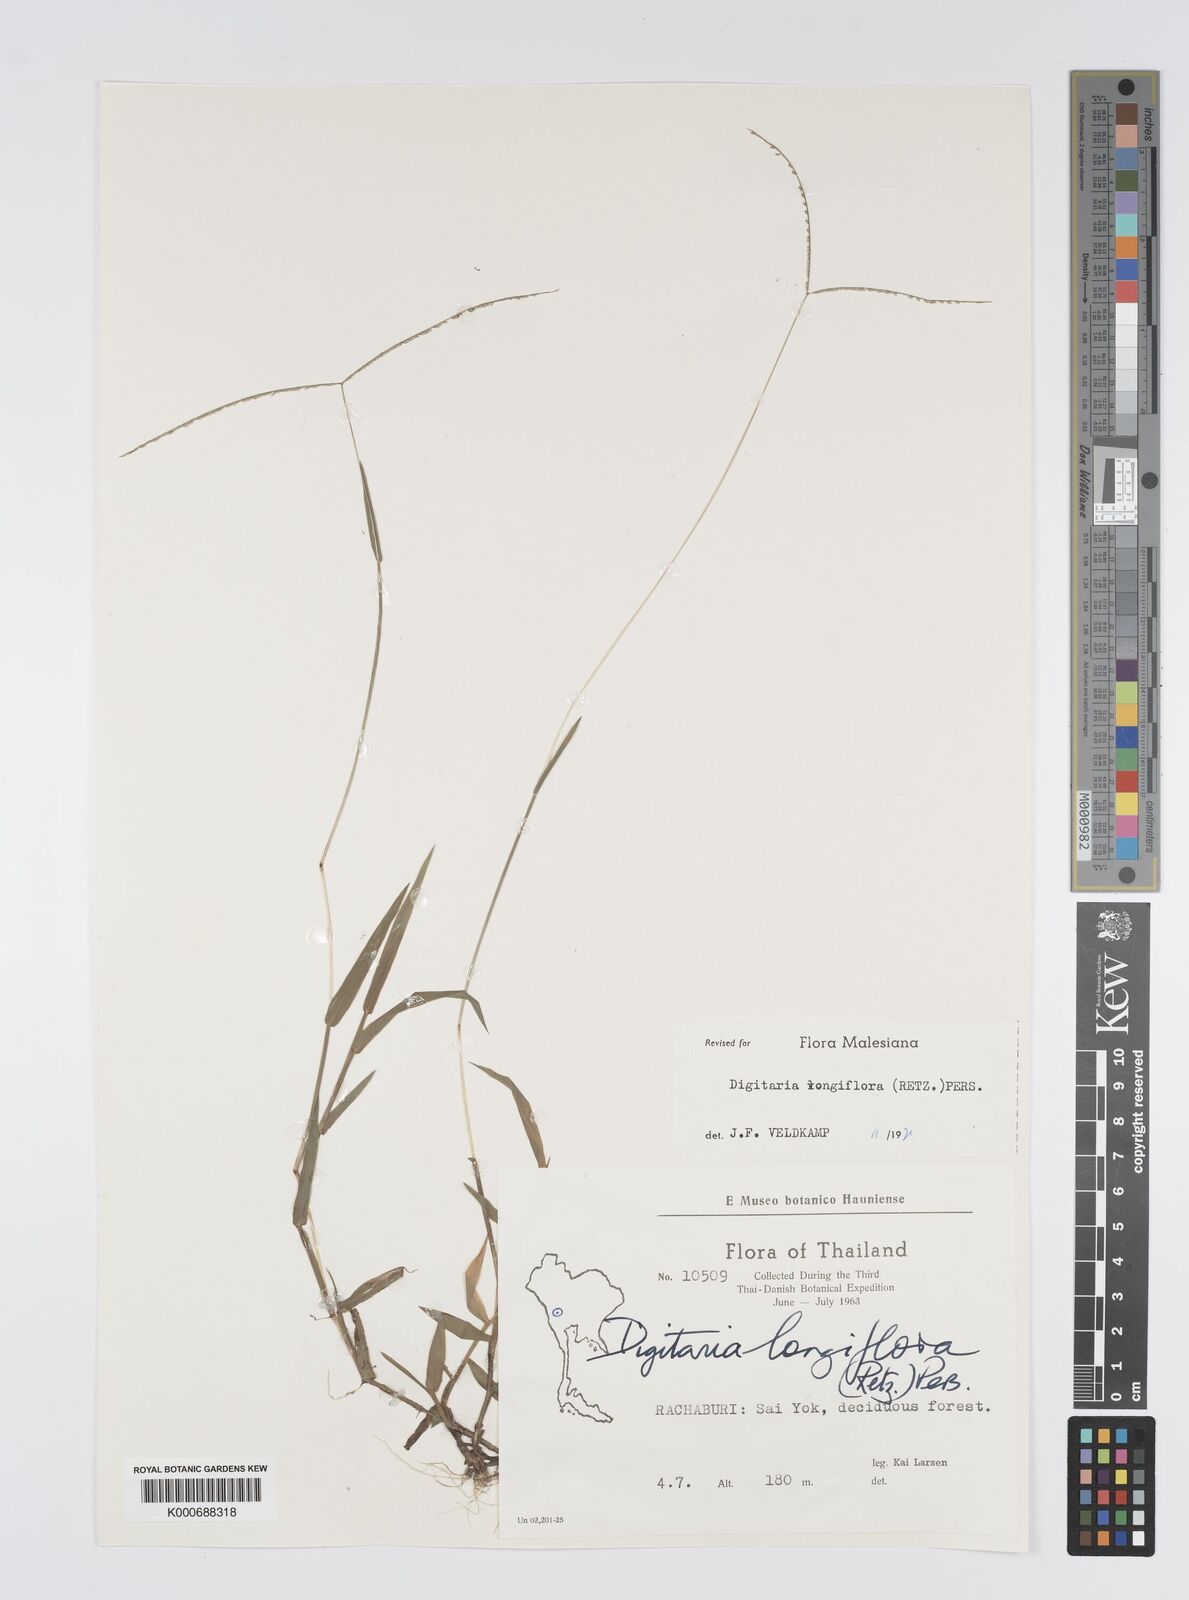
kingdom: Plantae
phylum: Tracheophyta
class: Liliopsida
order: Poales
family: Poaceae
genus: Digitaria
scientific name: Digitaria longiflora
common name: Wire crabgrass
